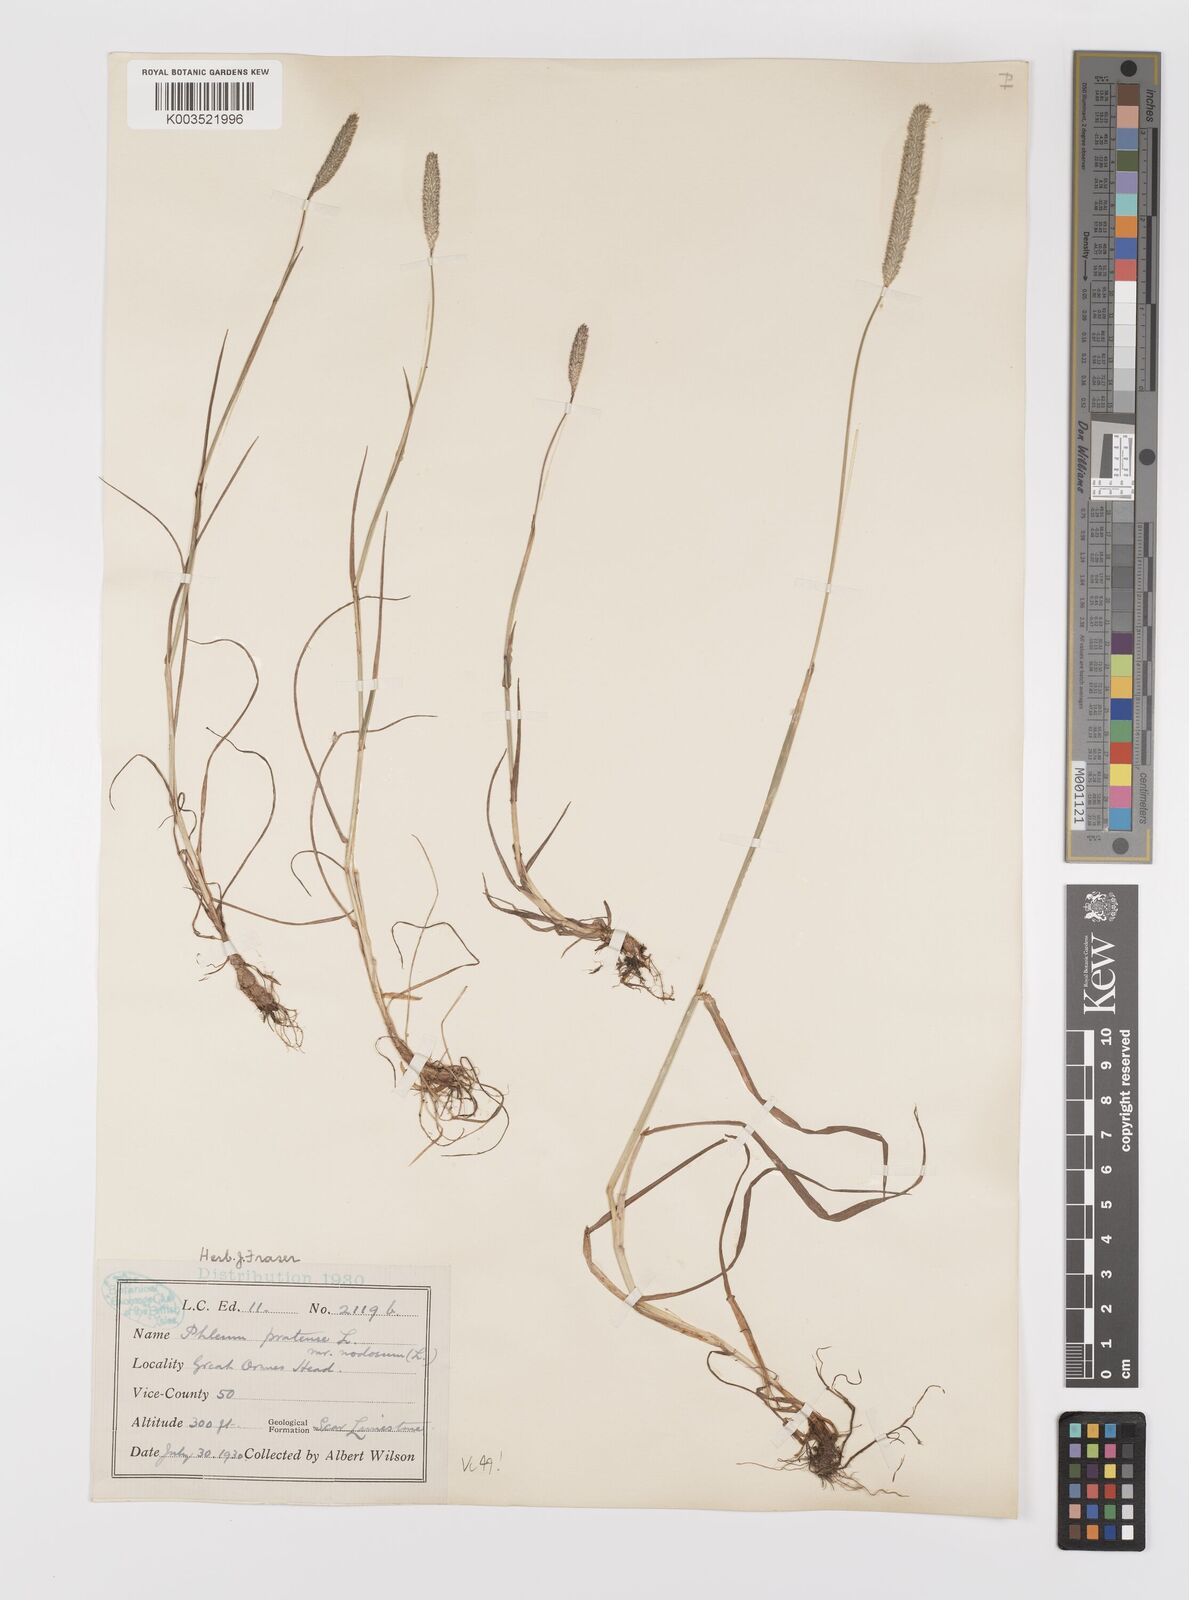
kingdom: Plantae
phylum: Tracheophyta
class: Liliopsida
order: Poales
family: Poaceae
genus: Phleum
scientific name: Phleum bertolonii
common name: Smaller cat's-tail
